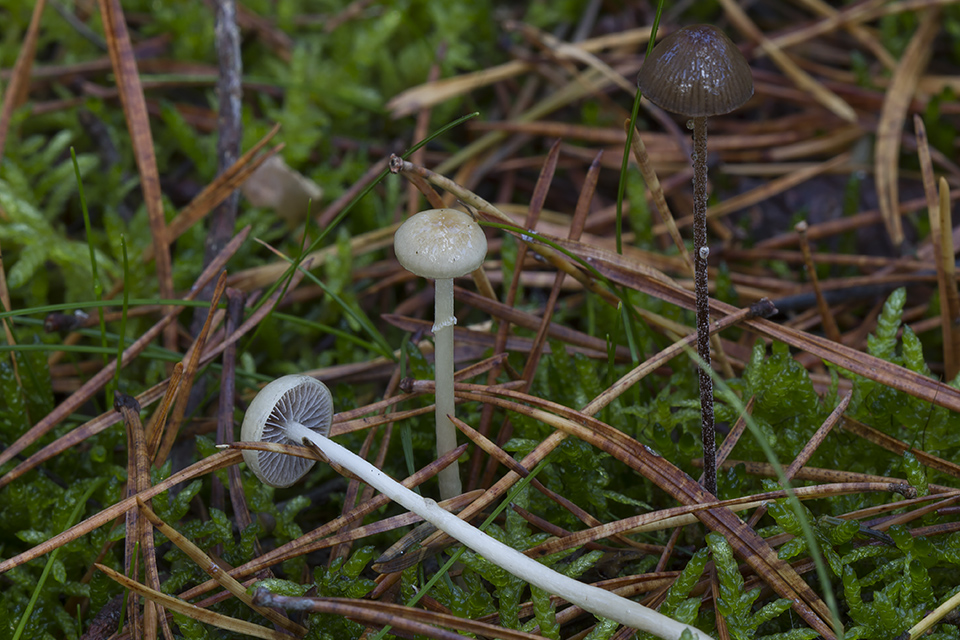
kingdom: Fungi
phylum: Basidiomycota
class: Agaricomycetes
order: Agaricales
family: Strophariaceae
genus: Protostropharia
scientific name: Protostropharia semiglobata
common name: halvkugleformet bredblad
